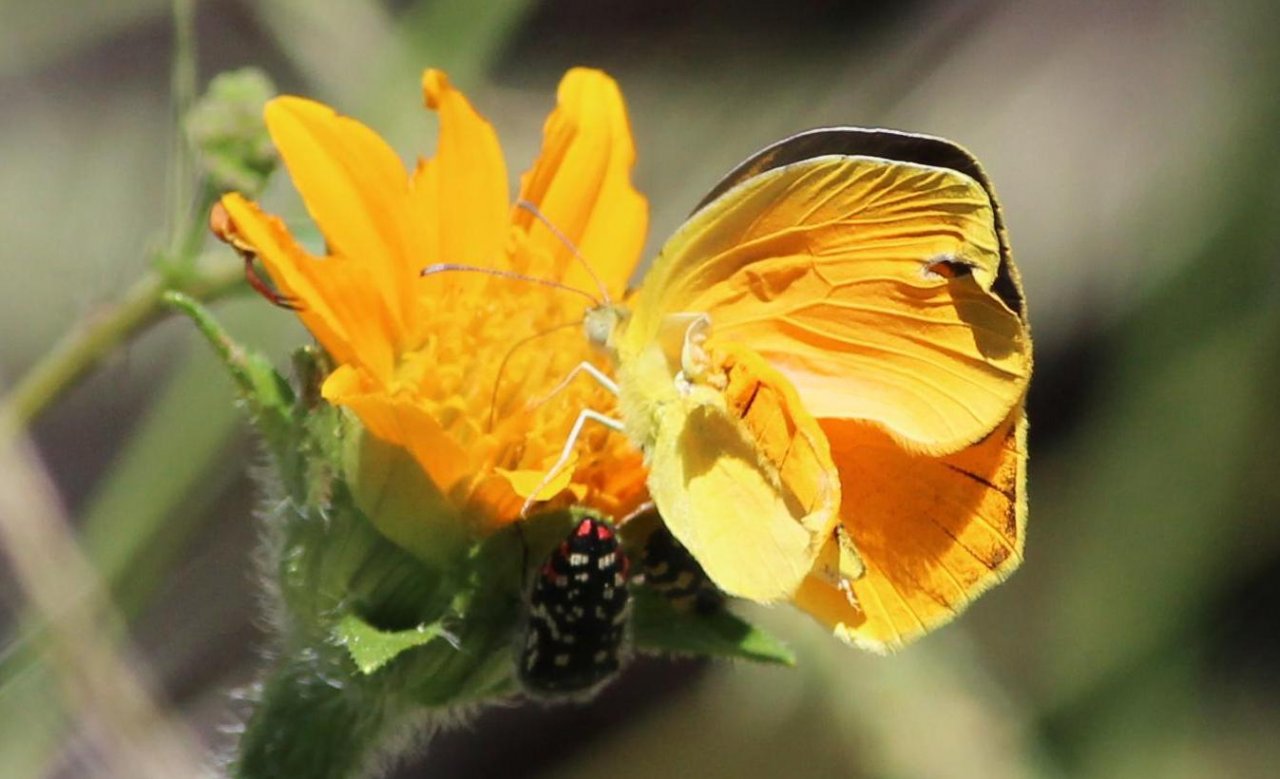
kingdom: Animalia
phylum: Arthropoda
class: Insecta
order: Lepidoptera
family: Pieridae
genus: Abaeis
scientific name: Abaeis nicippe
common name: Sleepy Orange
